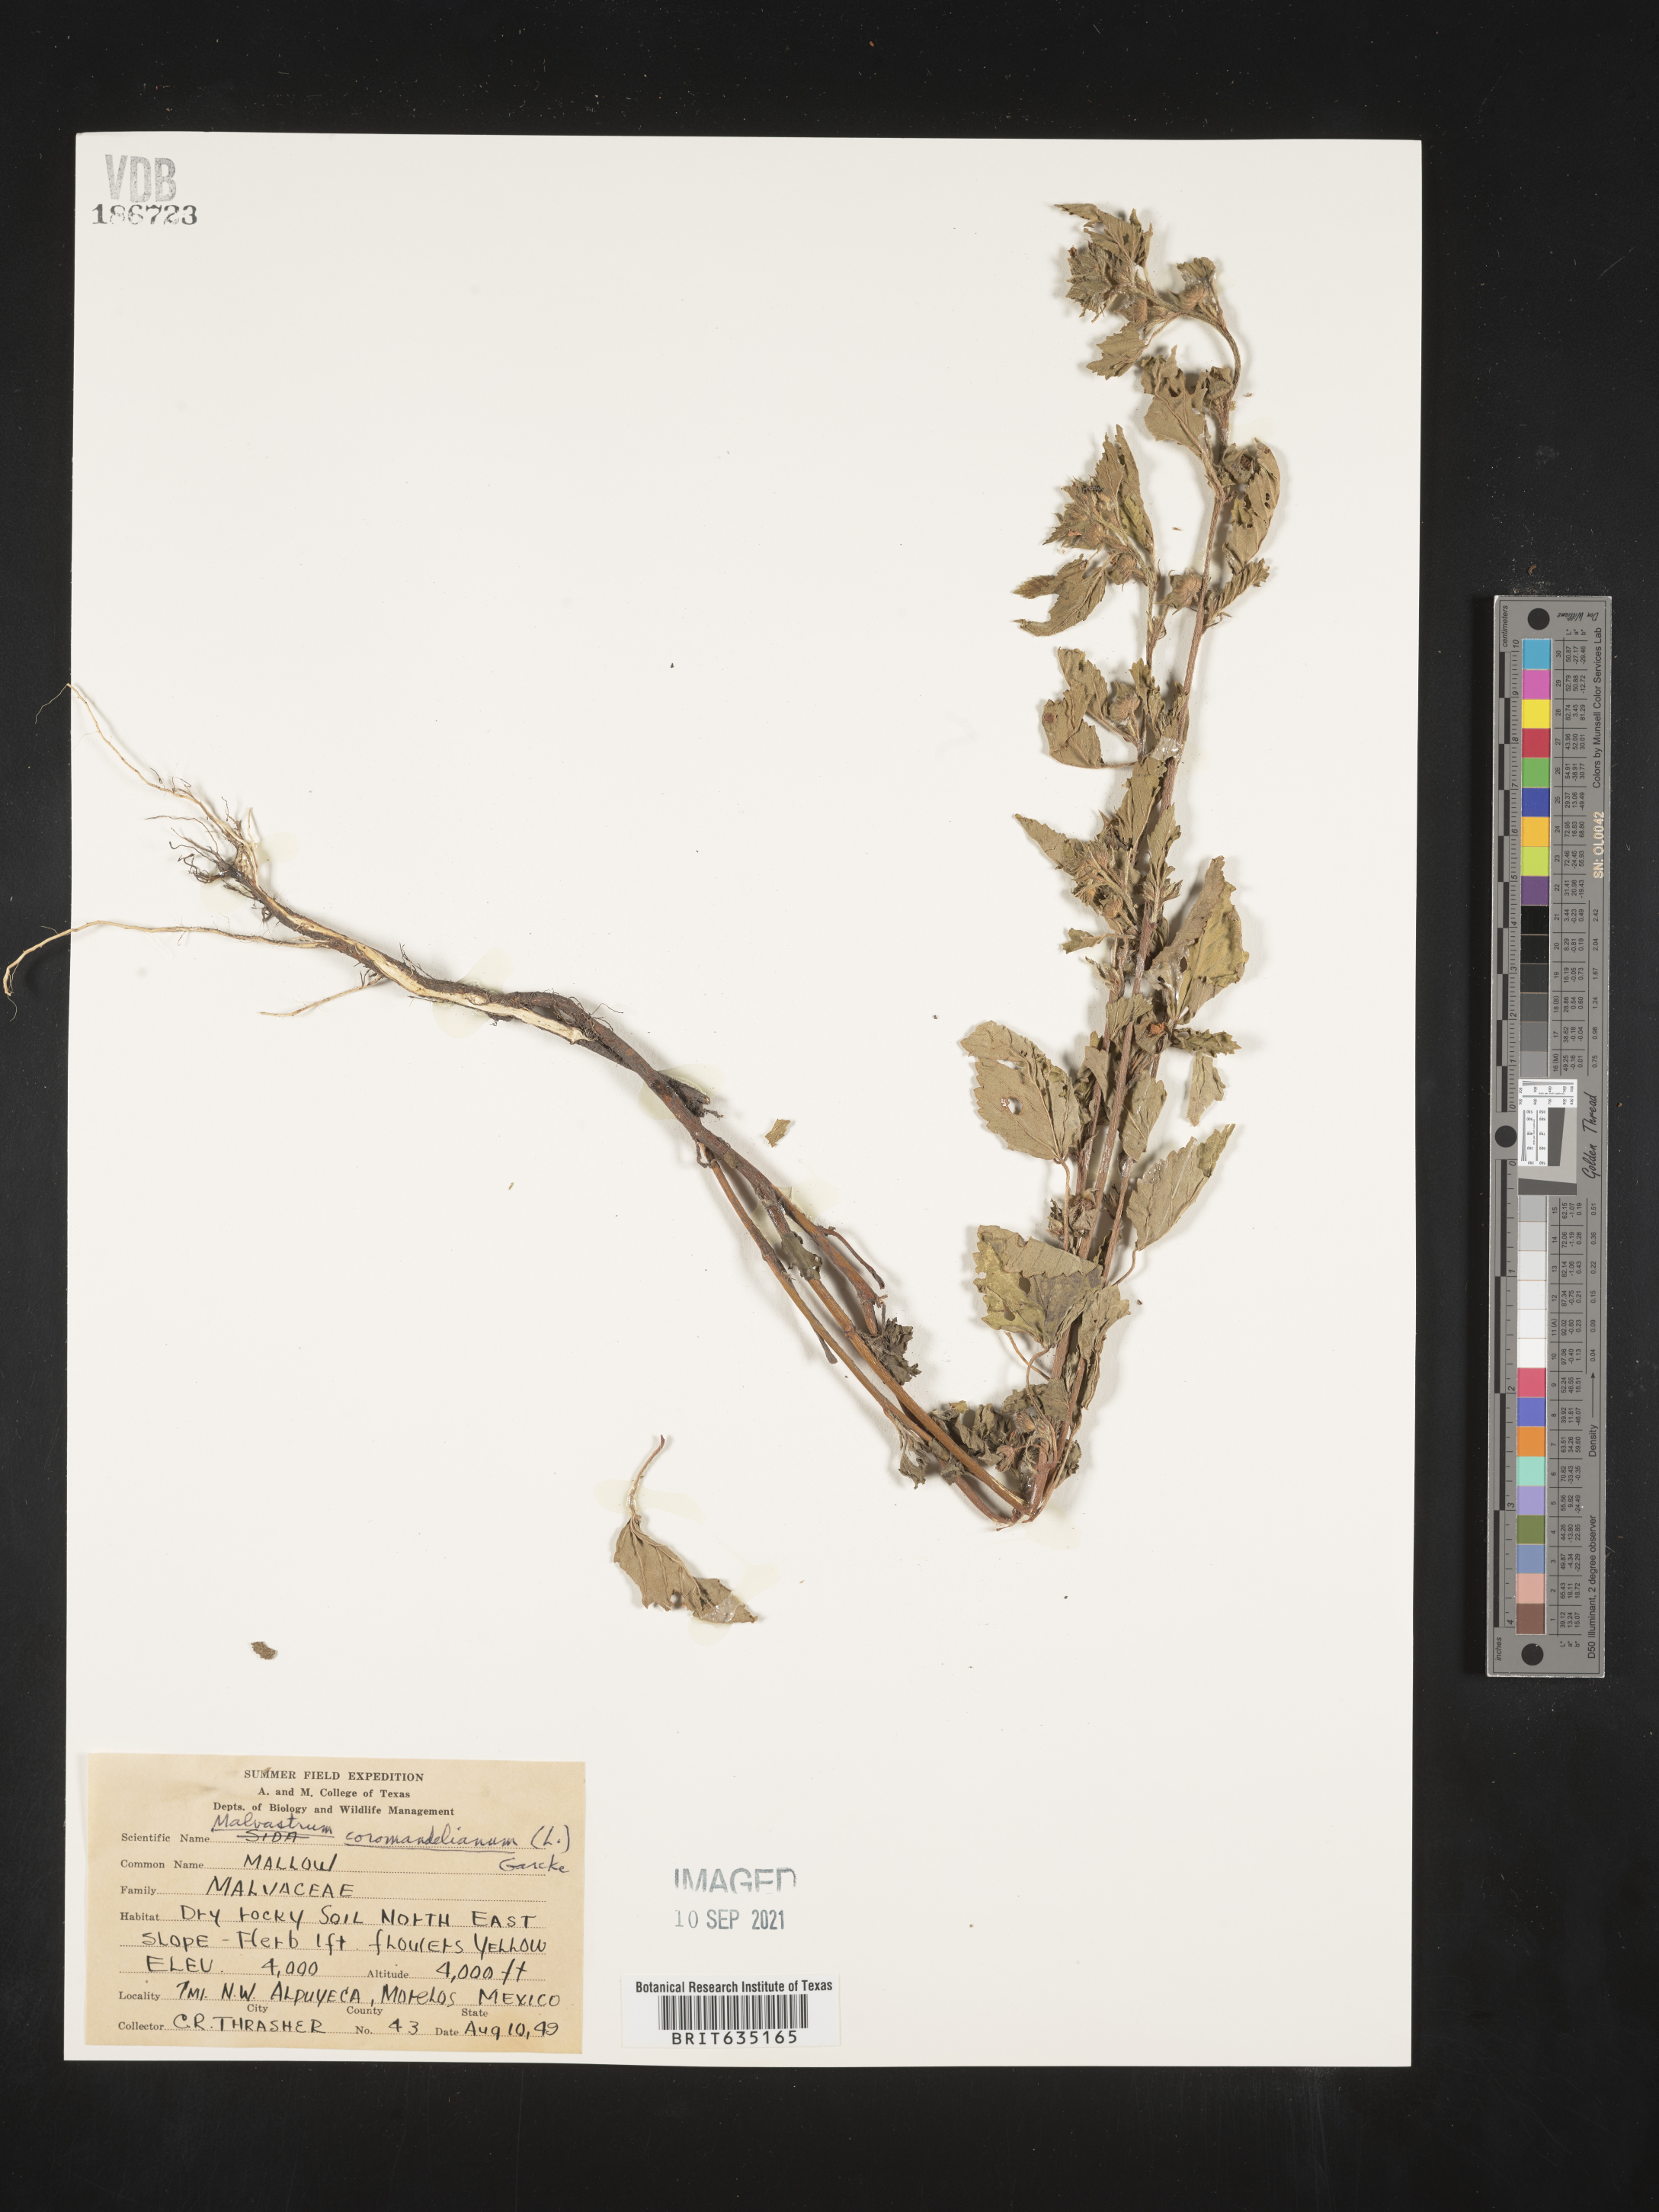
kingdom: Plantae
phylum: Tracheophyta
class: Magnoliopsida
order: Malvales
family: Malvaceae
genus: Malvastrum
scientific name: Malvastrum
